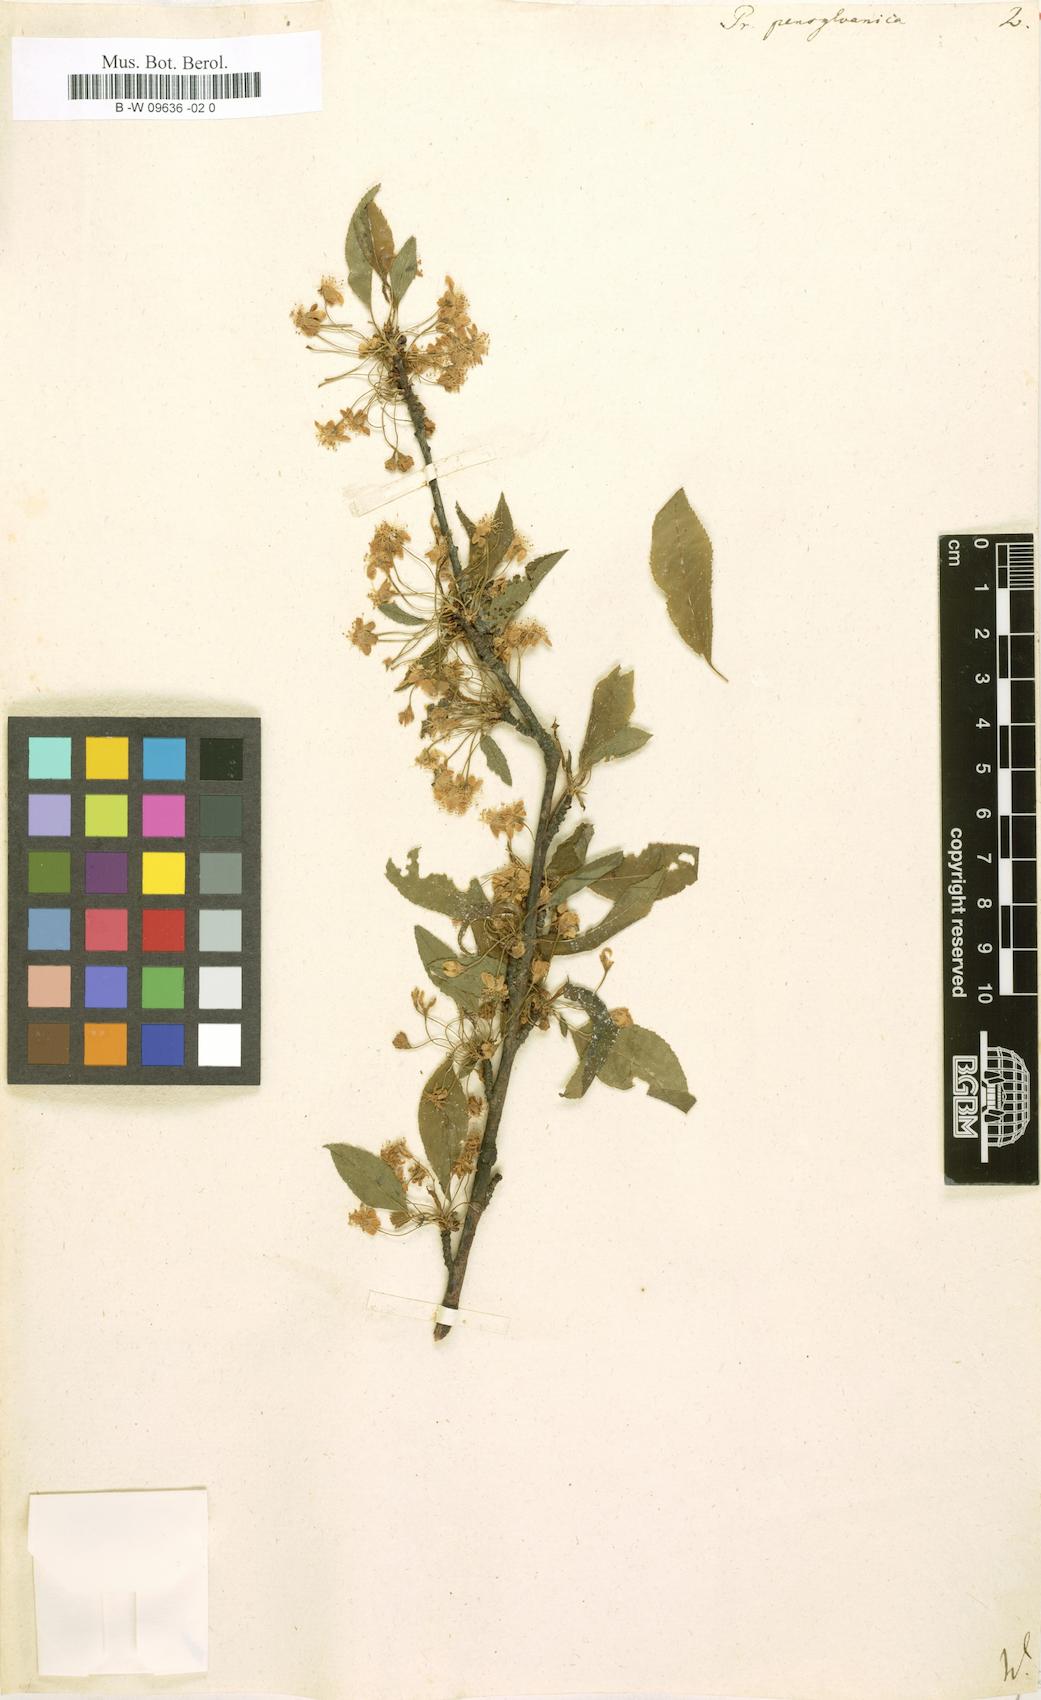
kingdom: Plantae
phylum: Tracheophyta
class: Magnoliopsida
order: Rosales
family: Rosaceae
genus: Prunus
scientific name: Prunus pensylvanica
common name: Pin cherry
